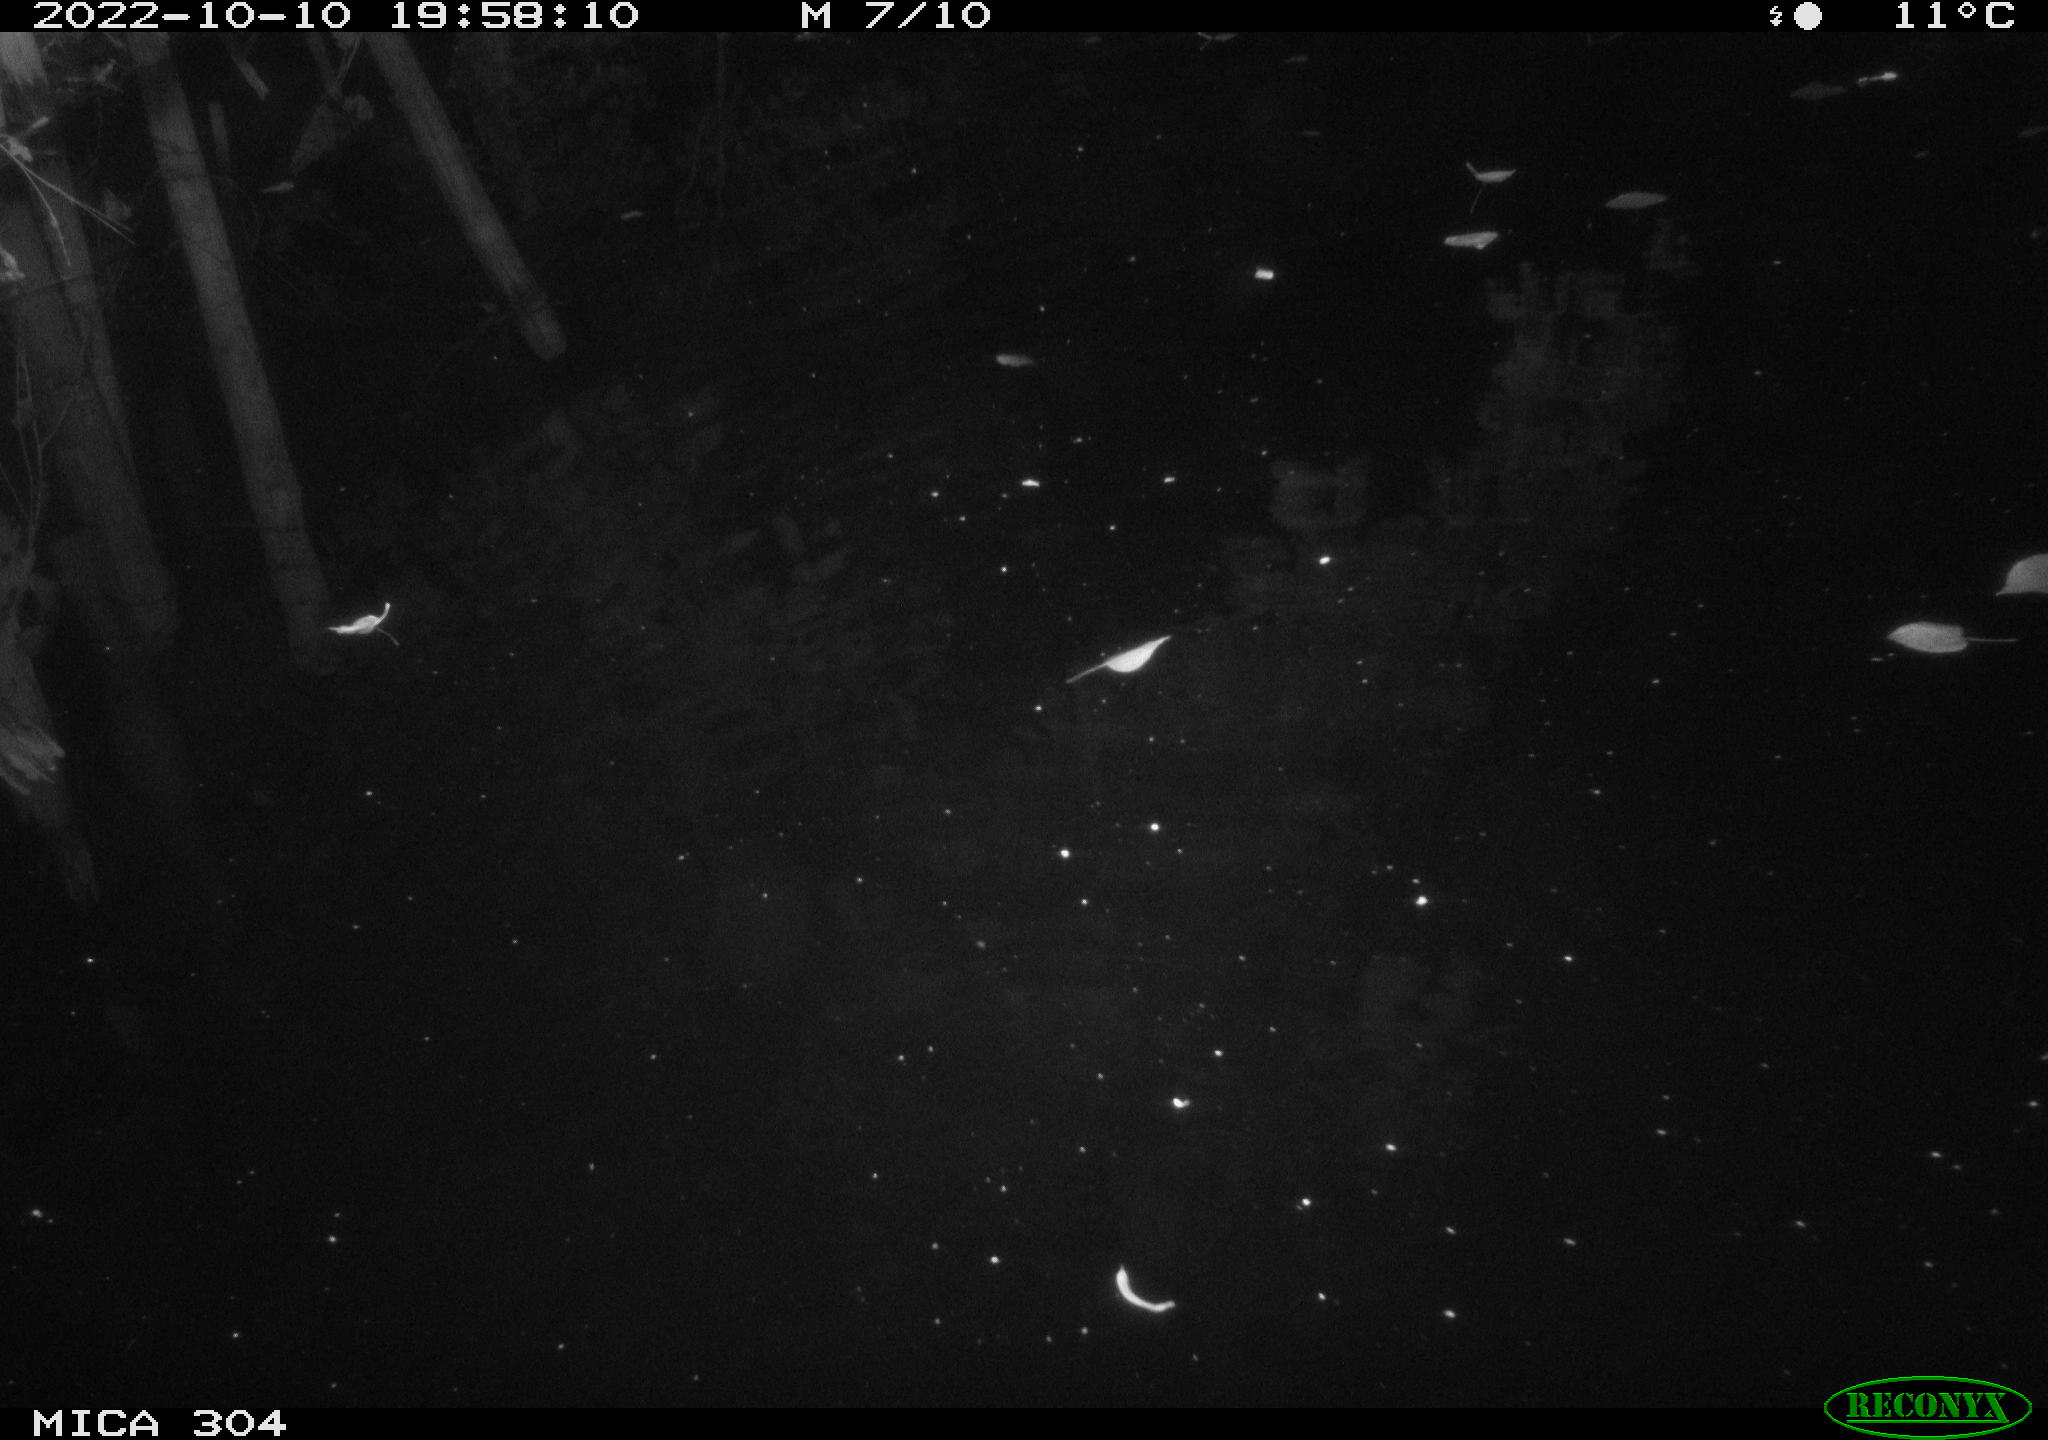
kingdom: Animalia
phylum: Chordata
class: Mammalia
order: Rodentia
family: Muridae
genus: Rattus
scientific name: Rattus norvegicus
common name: Brown rat
